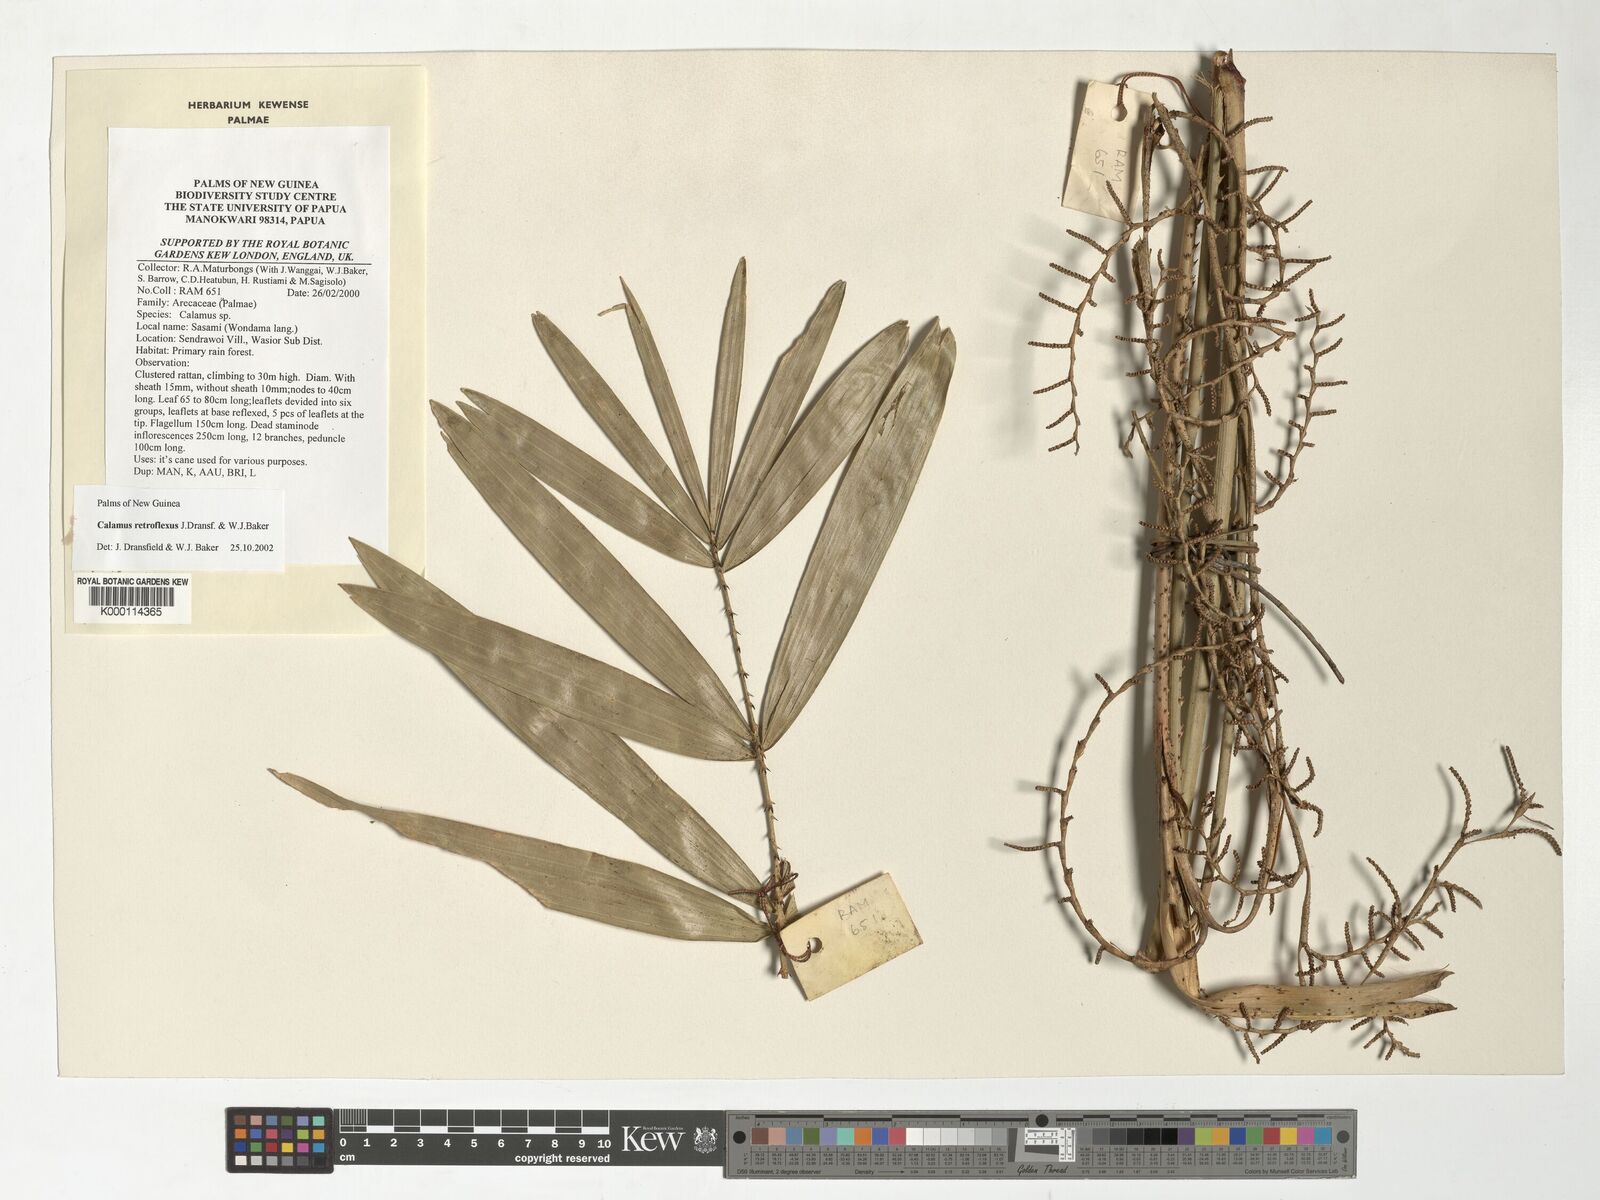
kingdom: Plantae
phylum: Tracheophyta
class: Liliopsida
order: Arecales
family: Arecaceae
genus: Calamus
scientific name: Calamus retroflexus
